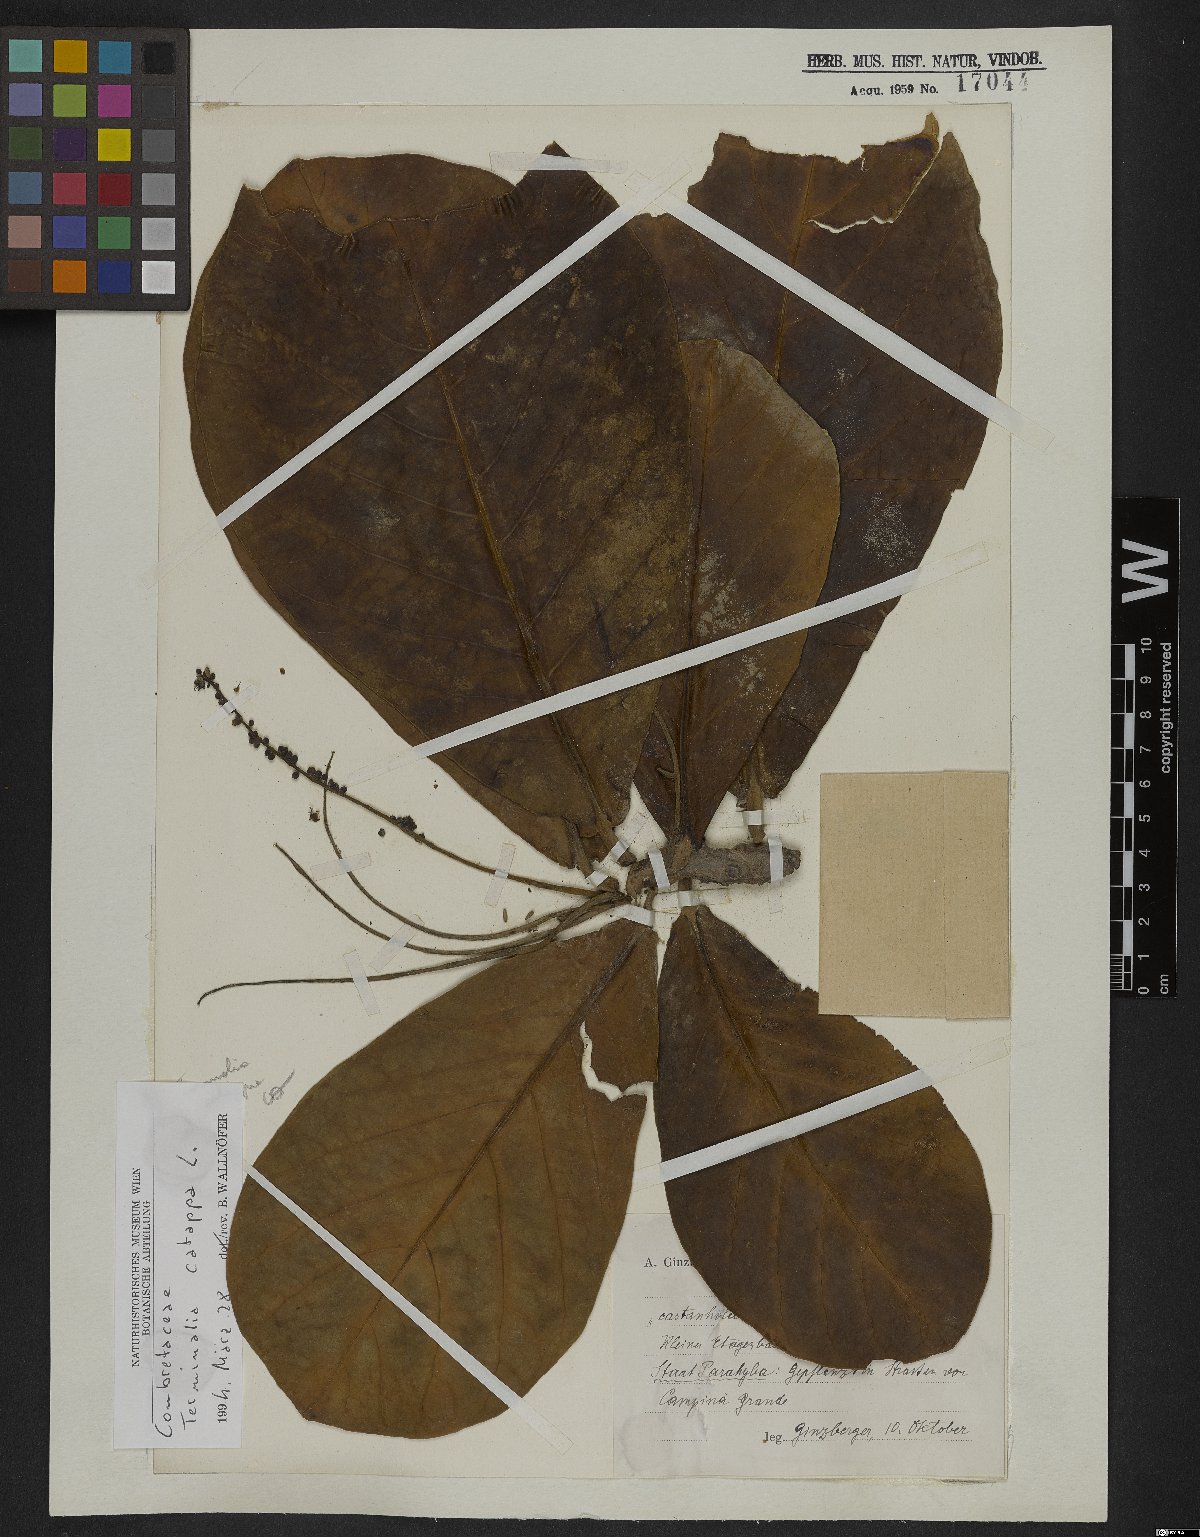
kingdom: Plantae
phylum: Tracheophyta
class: Magnoliopsida
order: Myrtales
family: Combretaceae
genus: Terminalia
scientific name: Terminalia catappa
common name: Tropical almond
